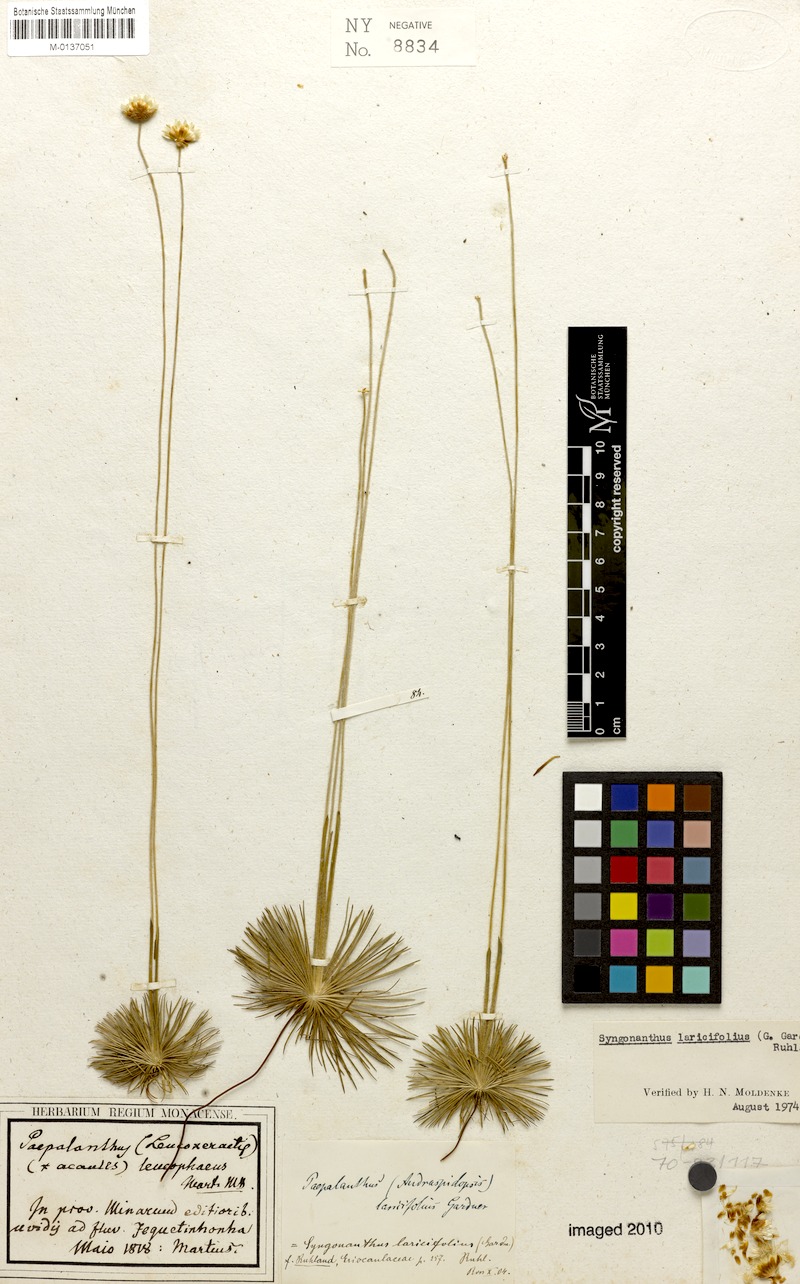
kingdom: Plantae
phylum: Tracheophyta
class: Liliopsida
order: Poales
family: Eriocaulaceae
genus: Syngonanthus
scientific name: Syngonanthus laricifolius
